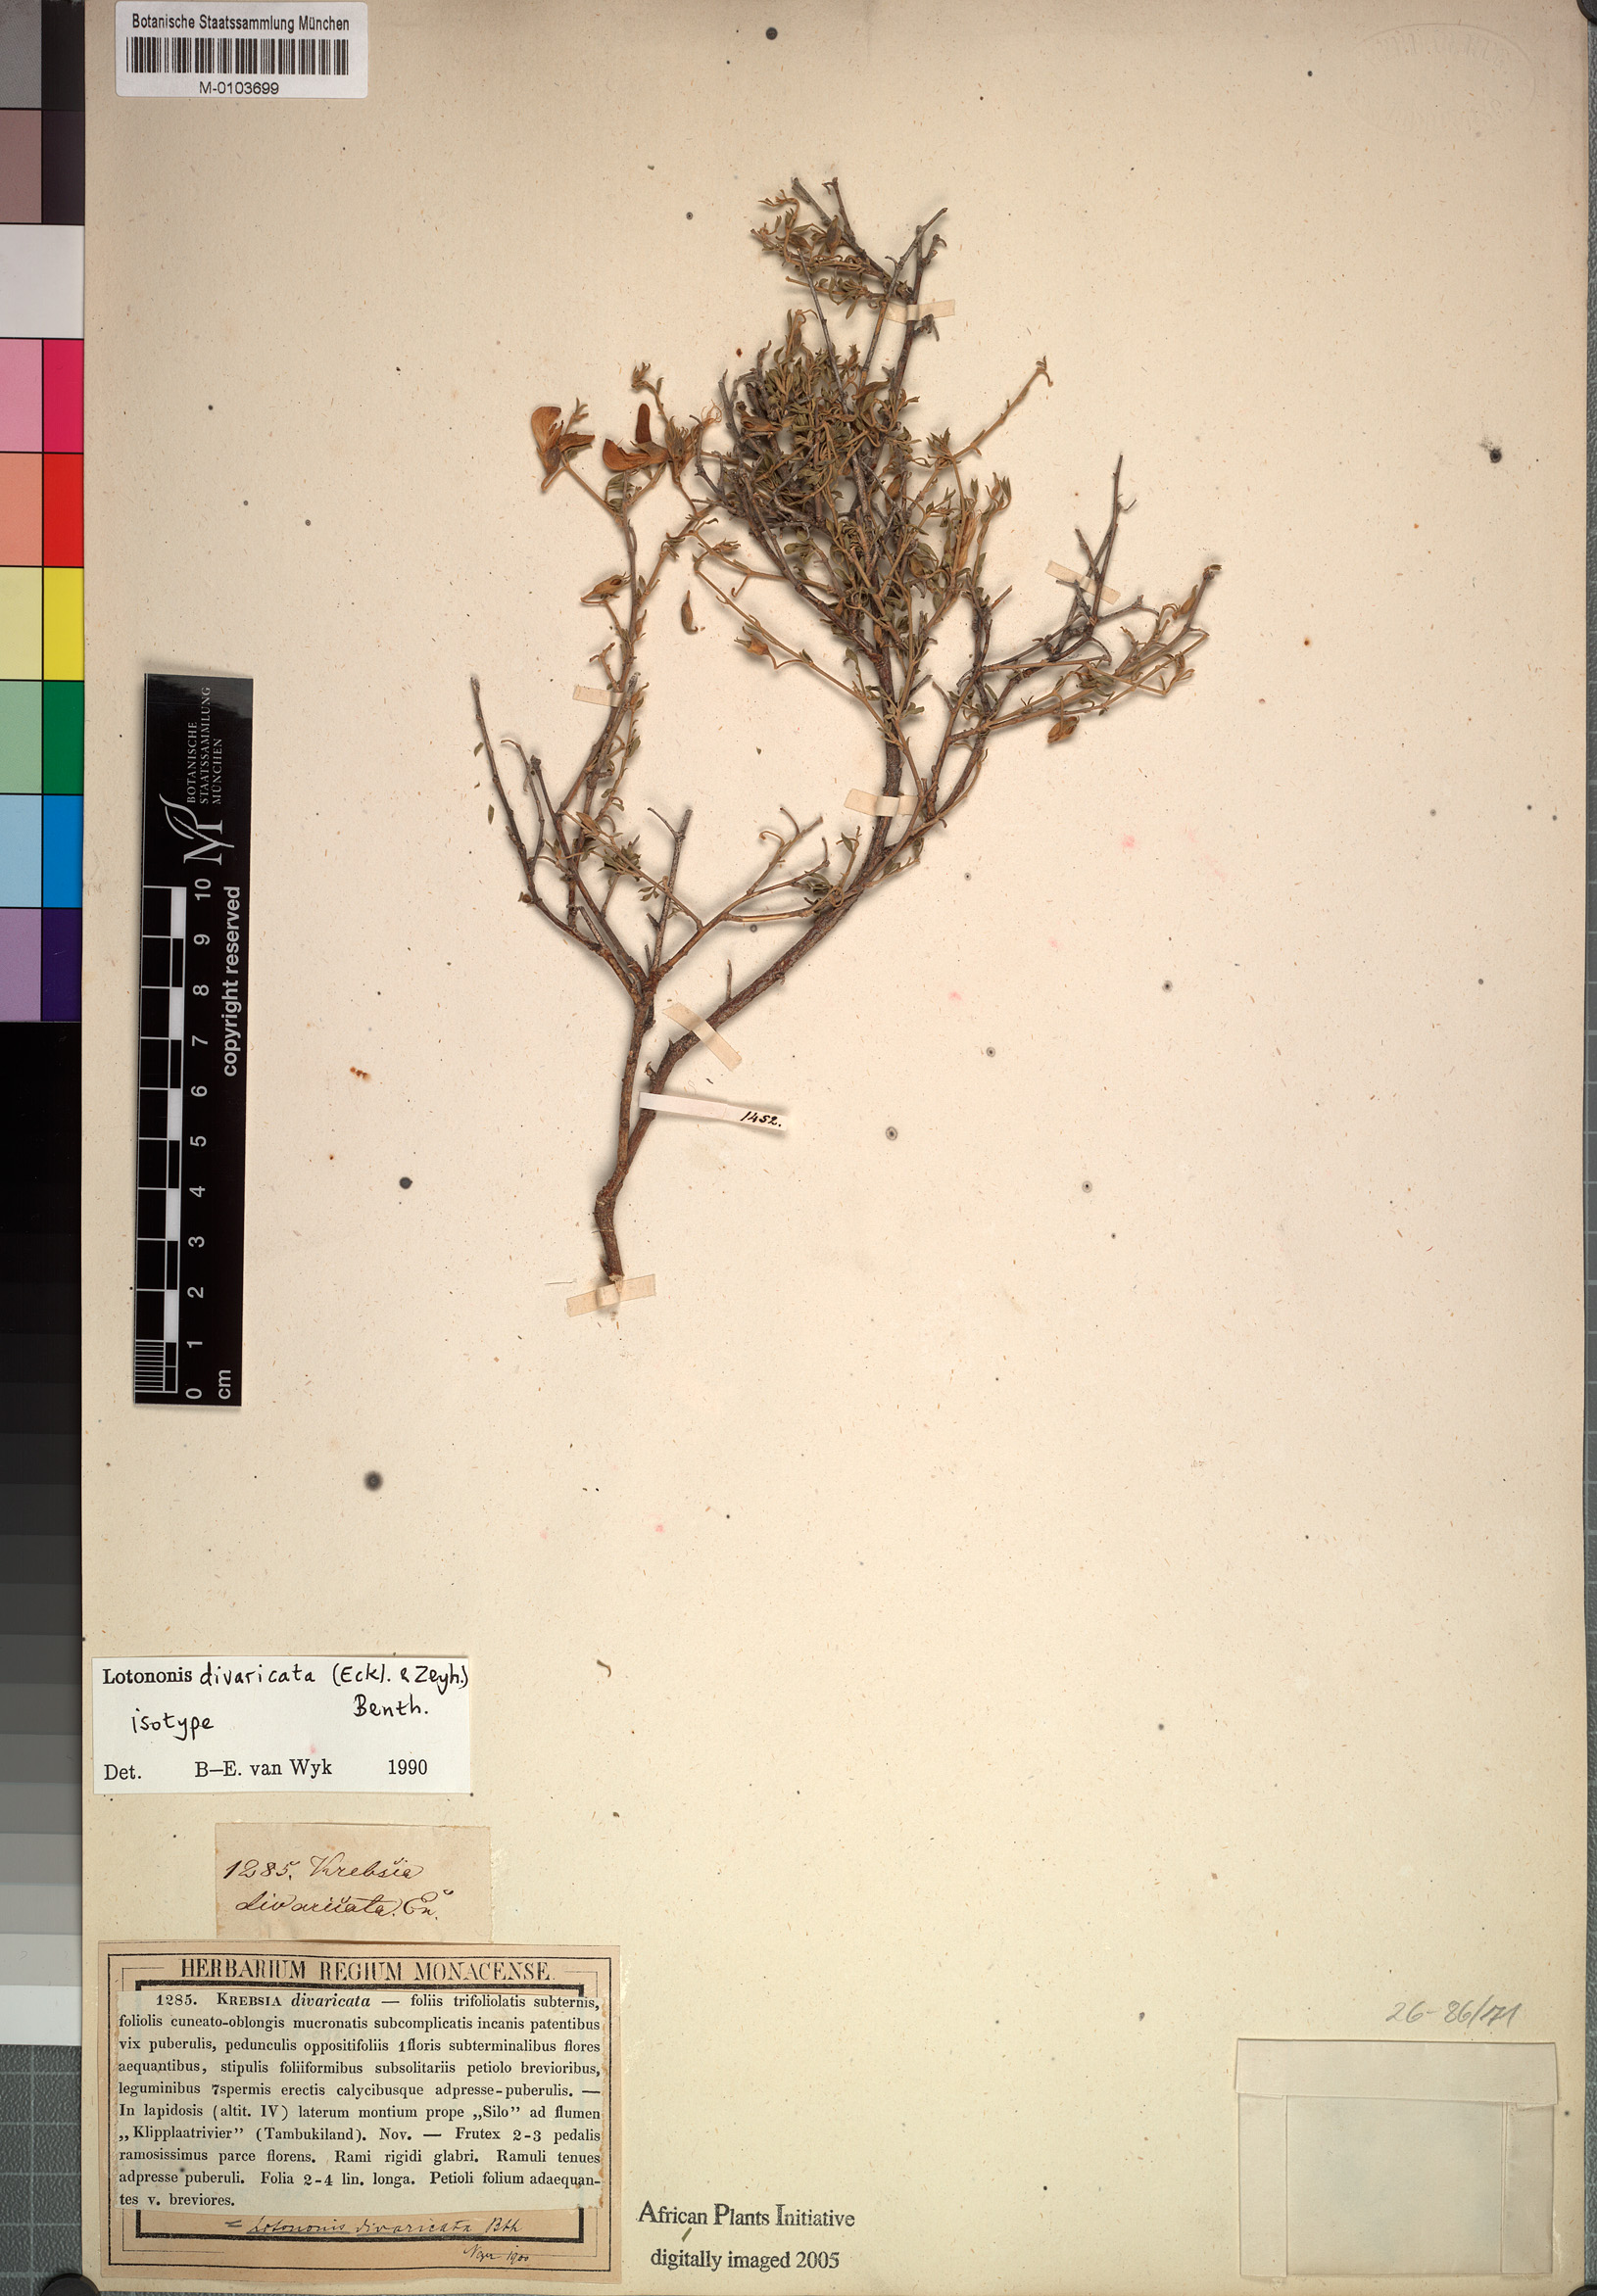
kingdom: Plantae
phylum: Tracheophyta
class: Magnoliopsida
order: Fabales
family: Fabaceae
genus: Lotononis
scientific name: Lotononis divaricata
